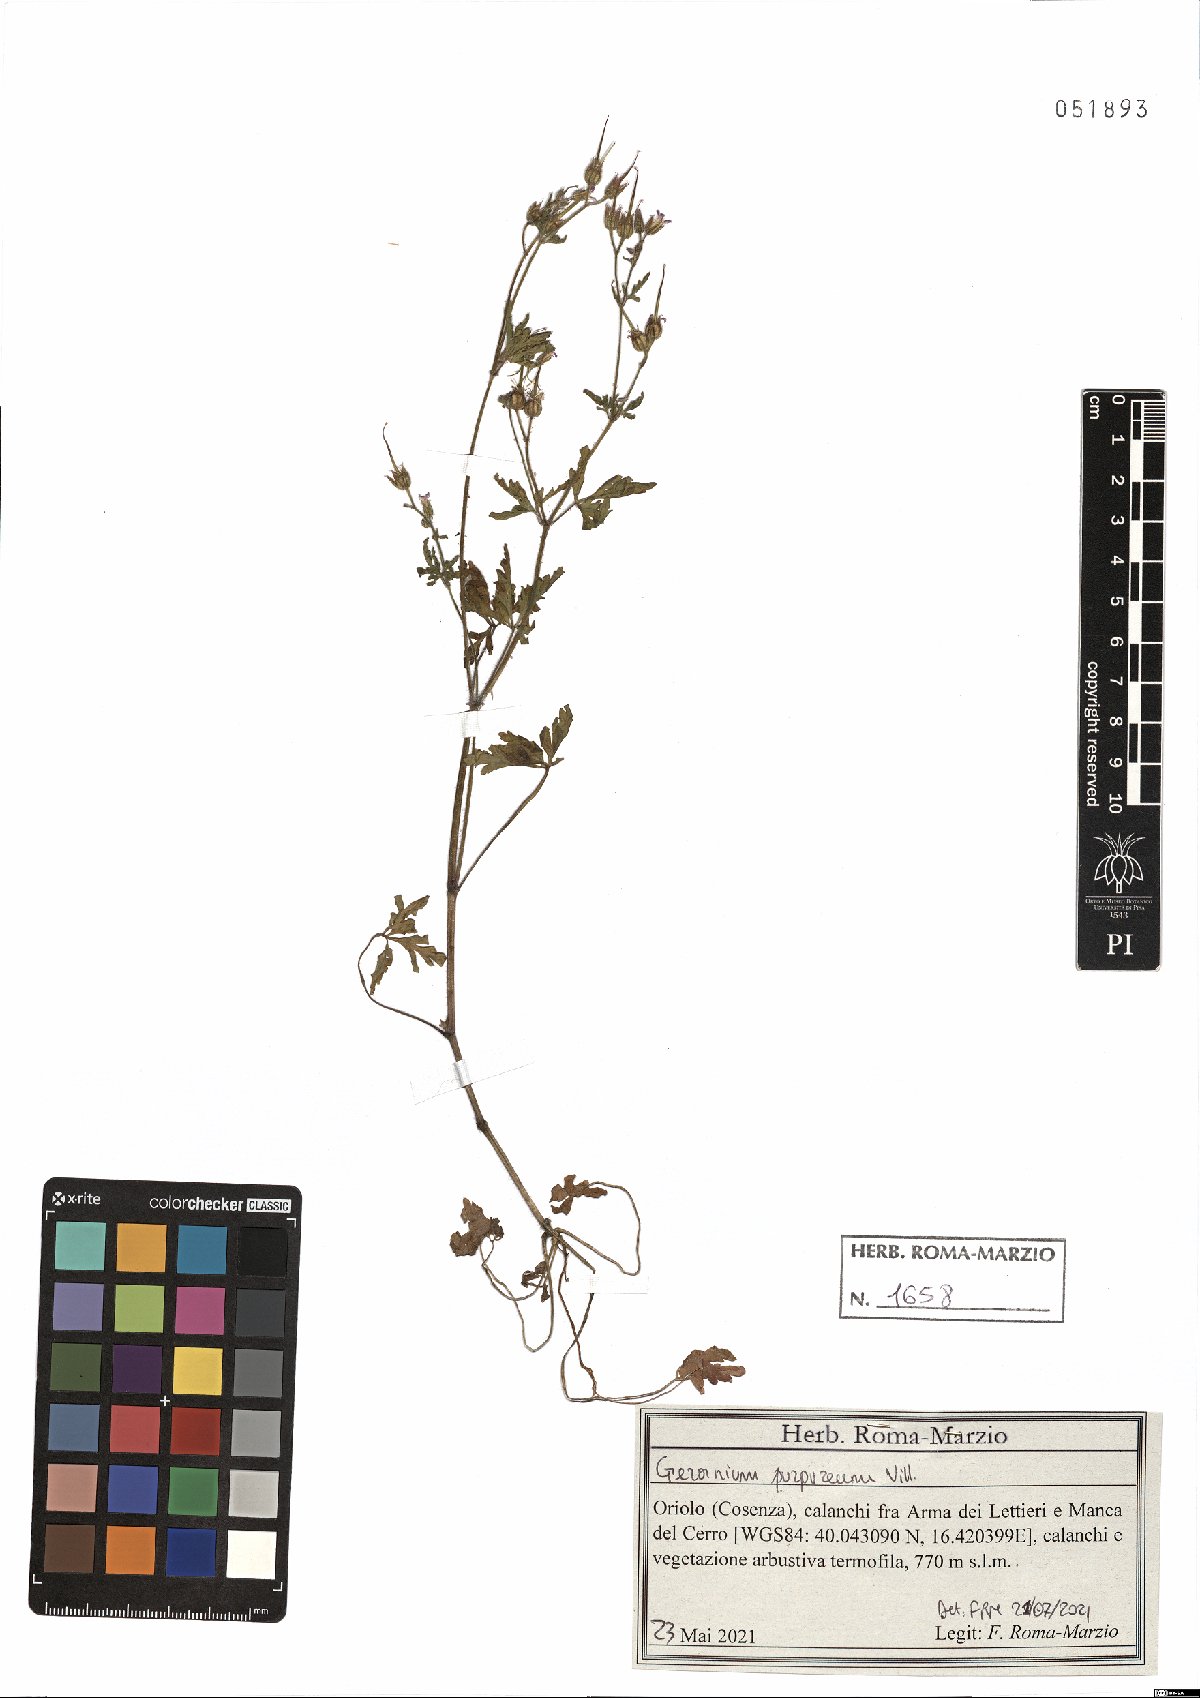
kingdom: Plantae
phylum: Tracheophyta
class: Magnoliopsida
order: Geraniales
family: Geraniaceae
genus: Geranium
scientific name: Geranium purpureum
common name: Little-robin
